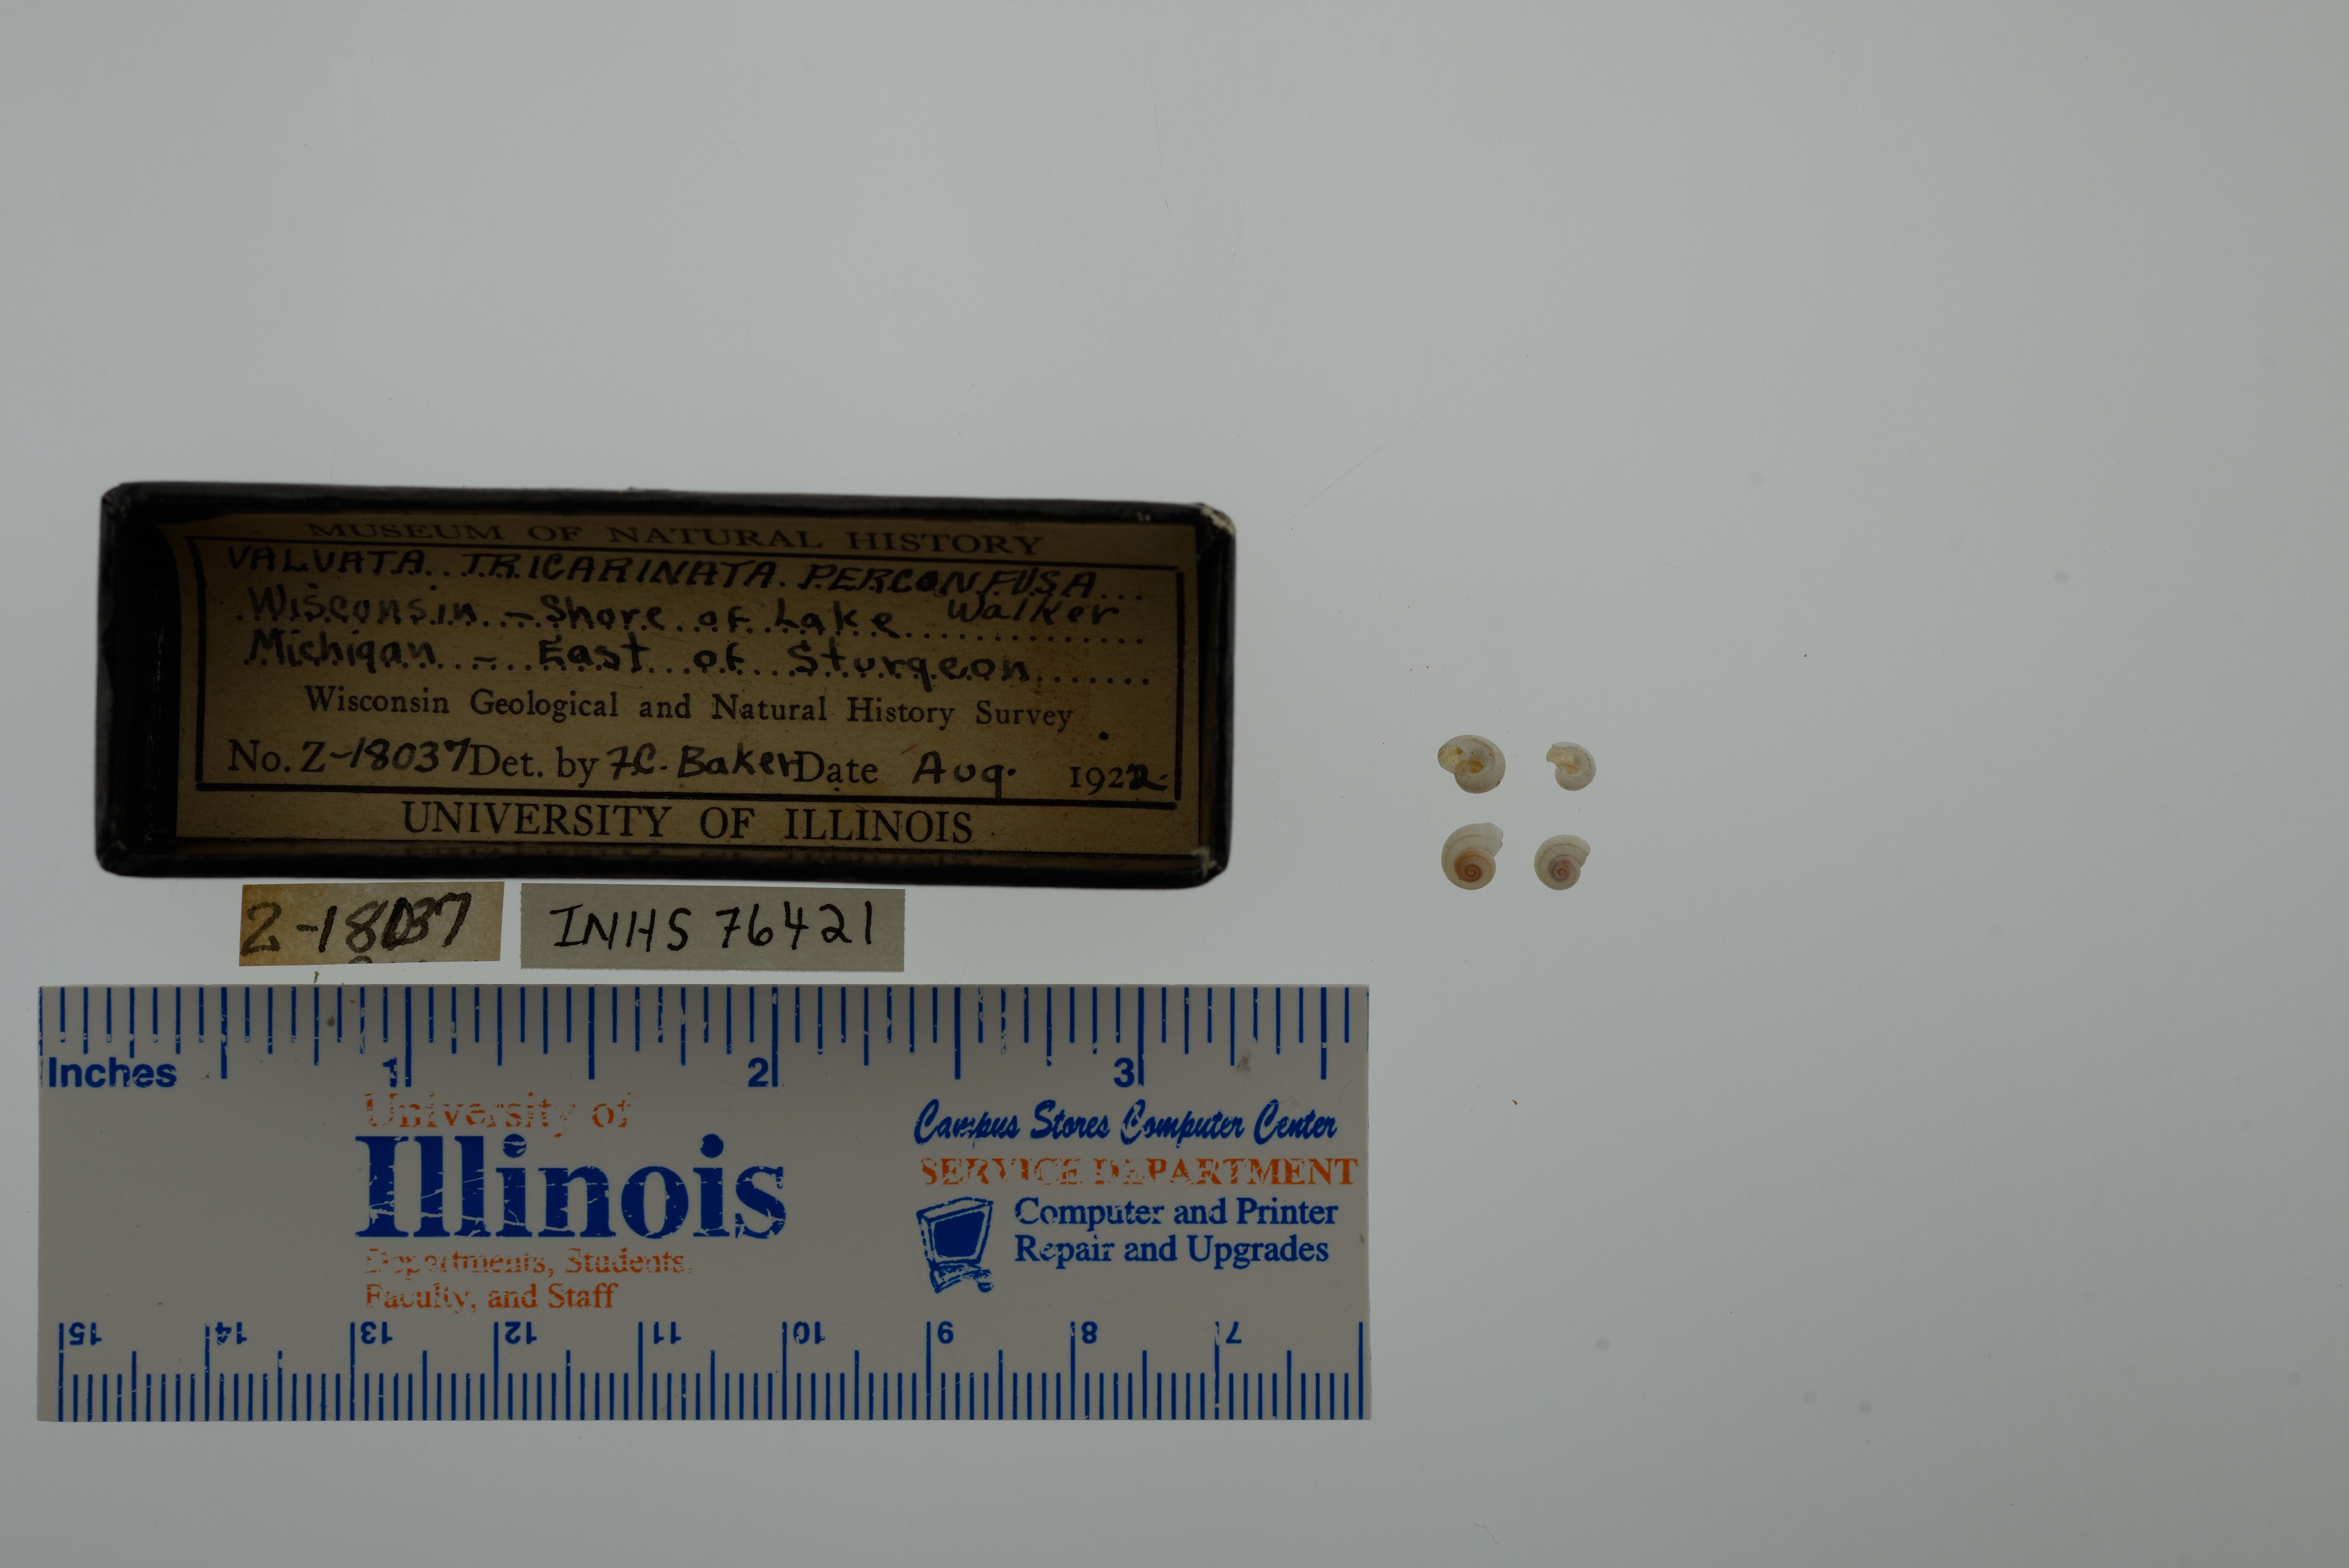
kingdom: Animalia
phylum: Mollusca
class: Gastropoda
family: Valvatidae
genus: Valvata
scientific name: Valvata tricarinata
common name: Three-ridge valvata
